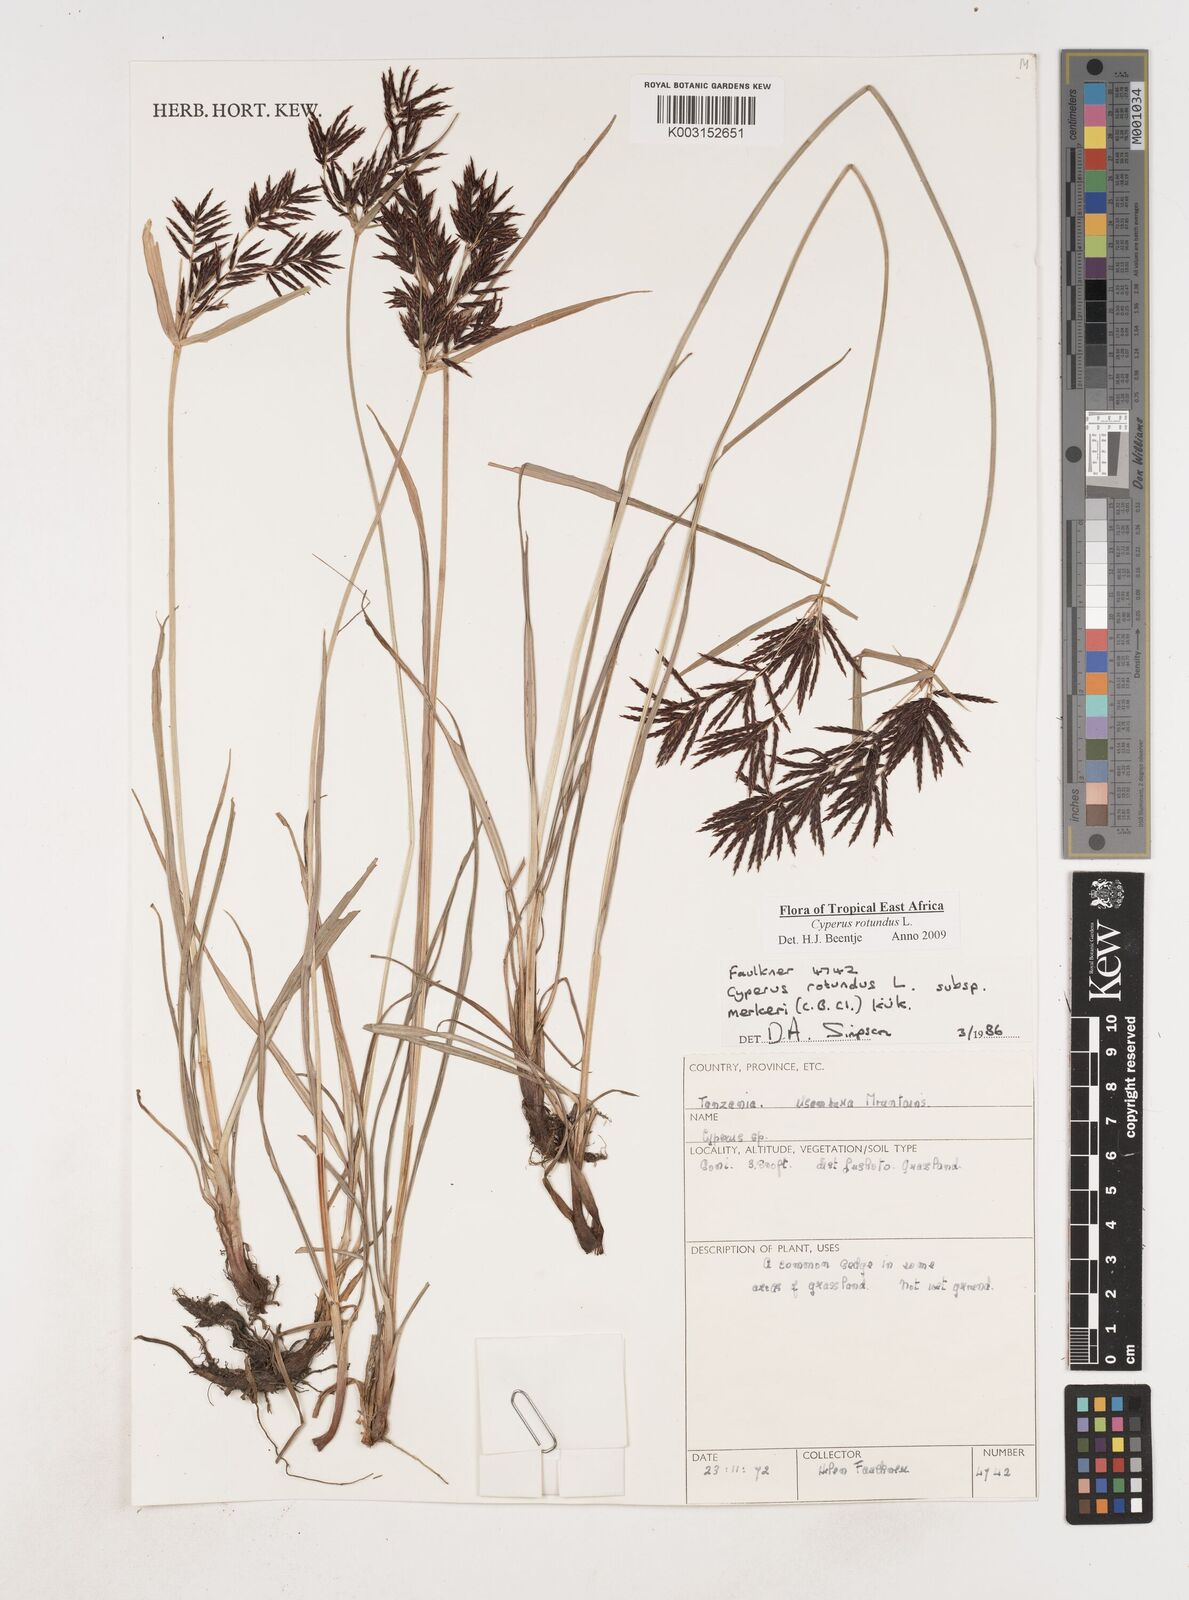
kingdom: Plantae
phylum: Tracheophyta
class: Liliopsida
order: Poales
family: Cyperaceae
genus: Cyperus
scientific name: Cyperus rotundus
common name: Nutgrass
